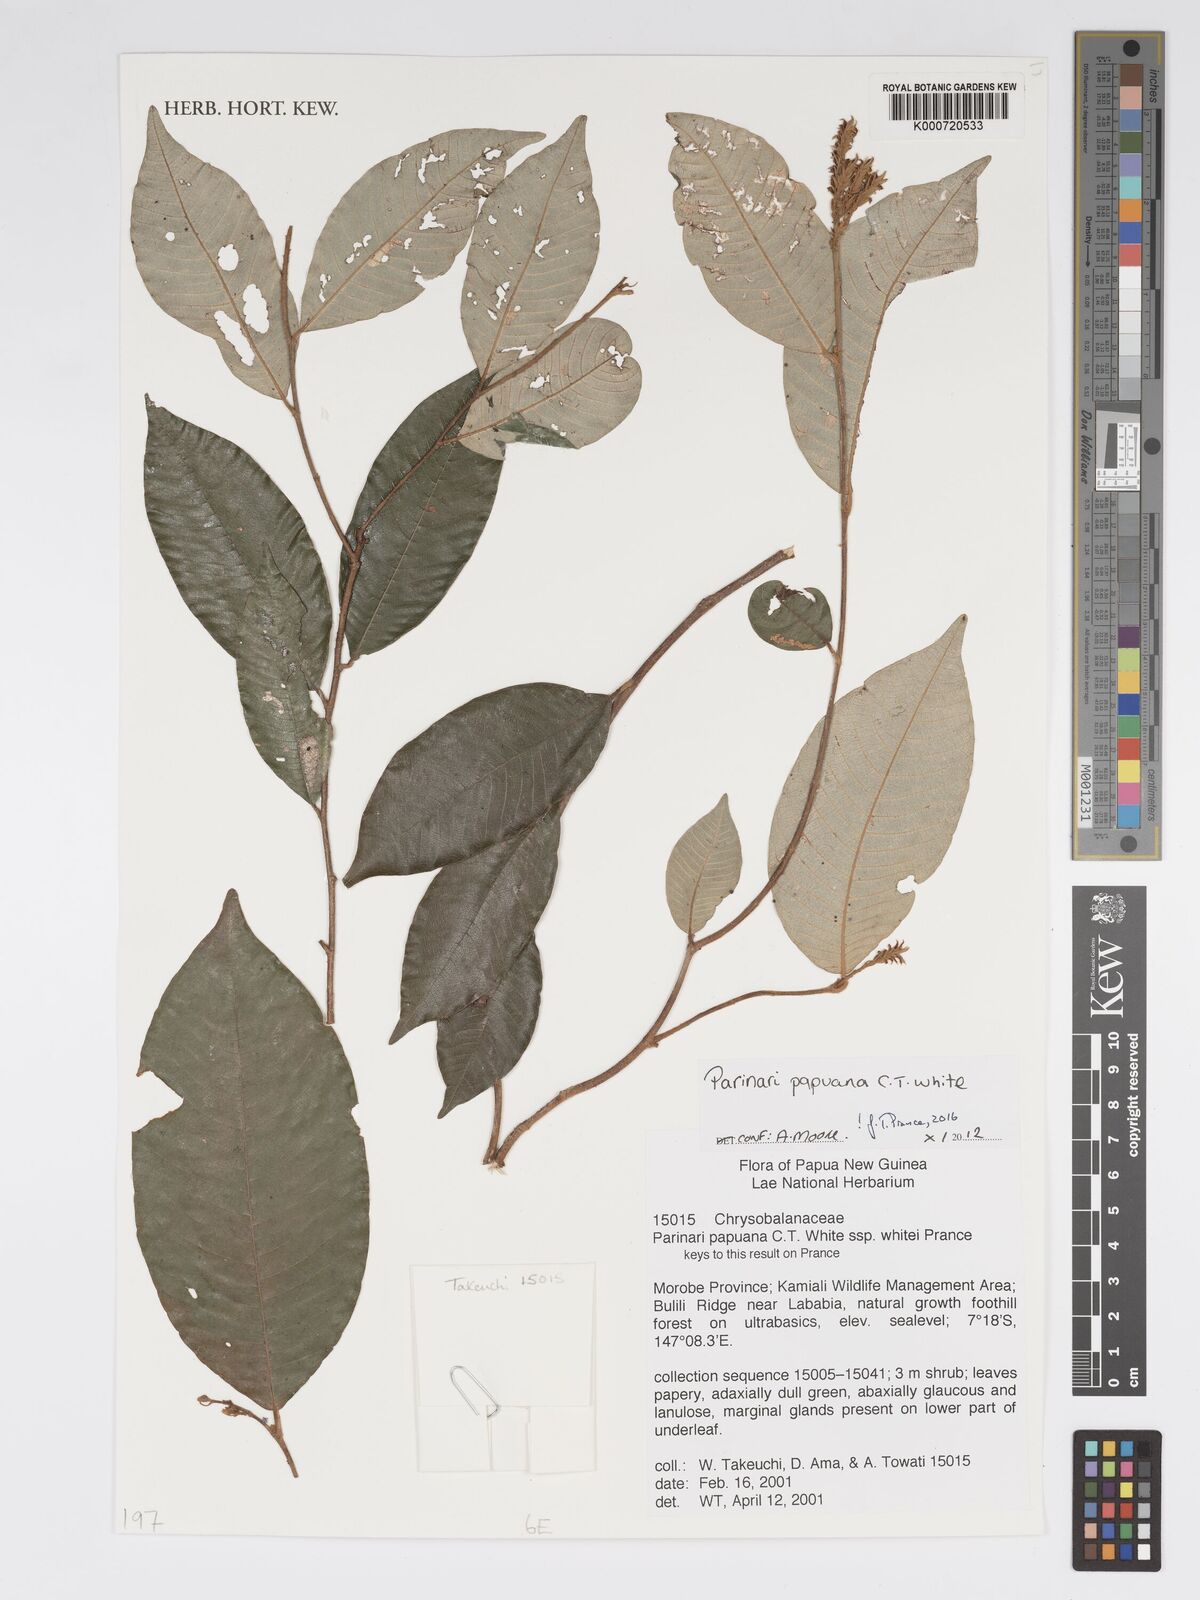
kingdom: Plantae
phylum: Tracheophyta
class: Magnoliopsida
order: Malpighiales
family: Chrysobalanaceae
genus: Parinari
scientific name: Parinari papuana
